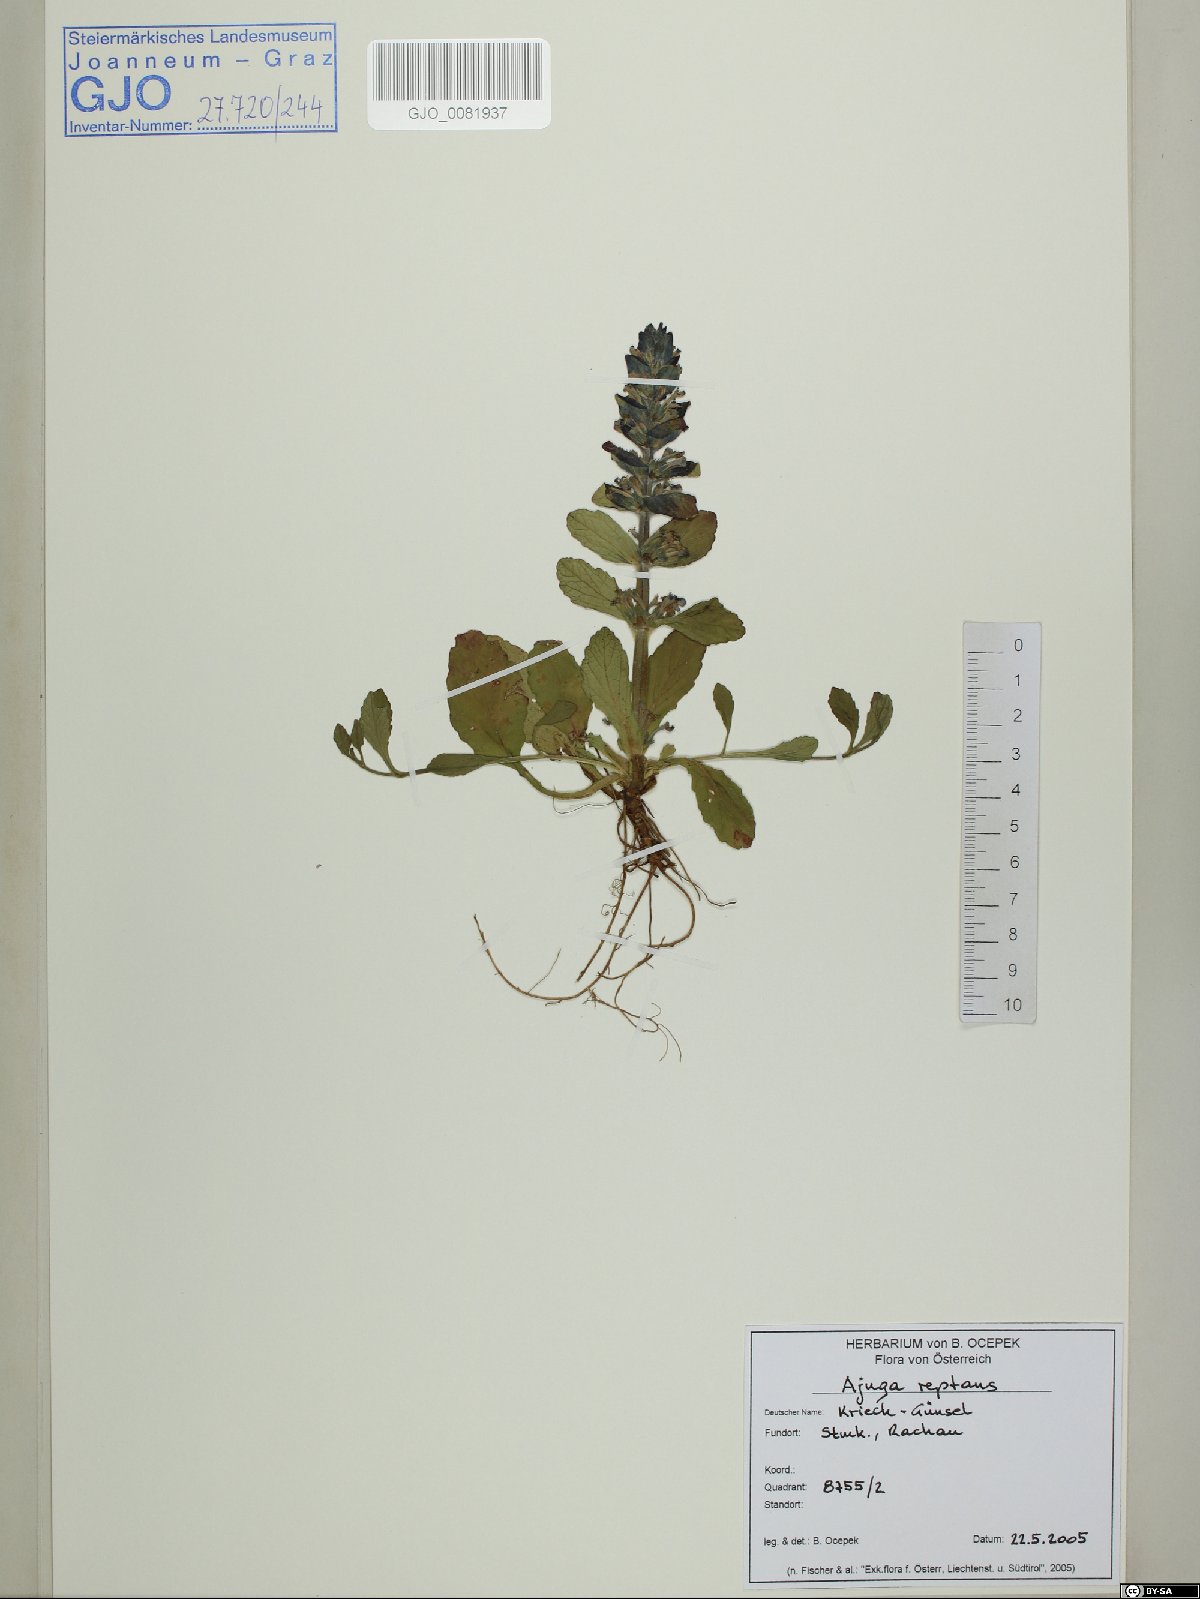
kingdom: Plantae
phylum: Tracheophyta
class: Magnoliopsida
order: Lamiales
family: Lamiaceae
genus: Ajuga
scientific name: Ajuga reptans
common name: Bugle
